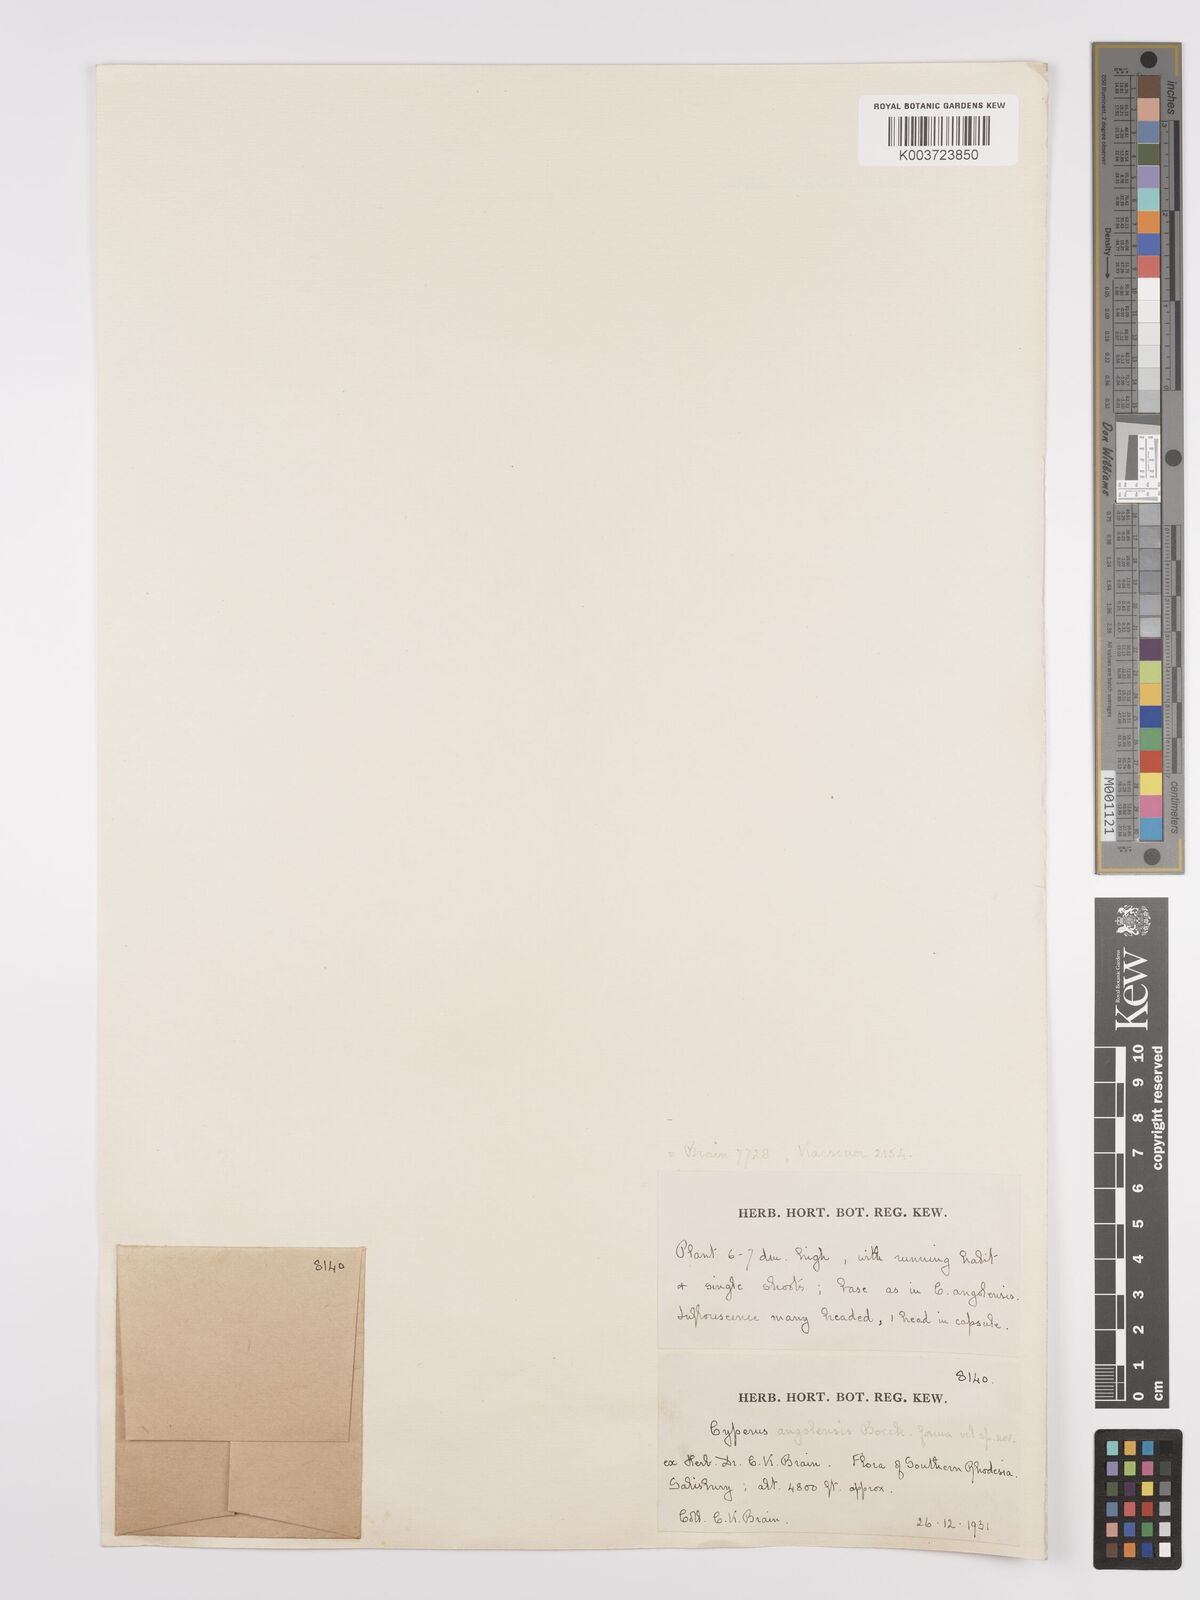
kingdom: Plantae
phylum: Tracheophyta
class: Liliopsida
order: Poales
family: Cyperaceae
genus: Cyperus
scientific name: Cyperus angolensis
